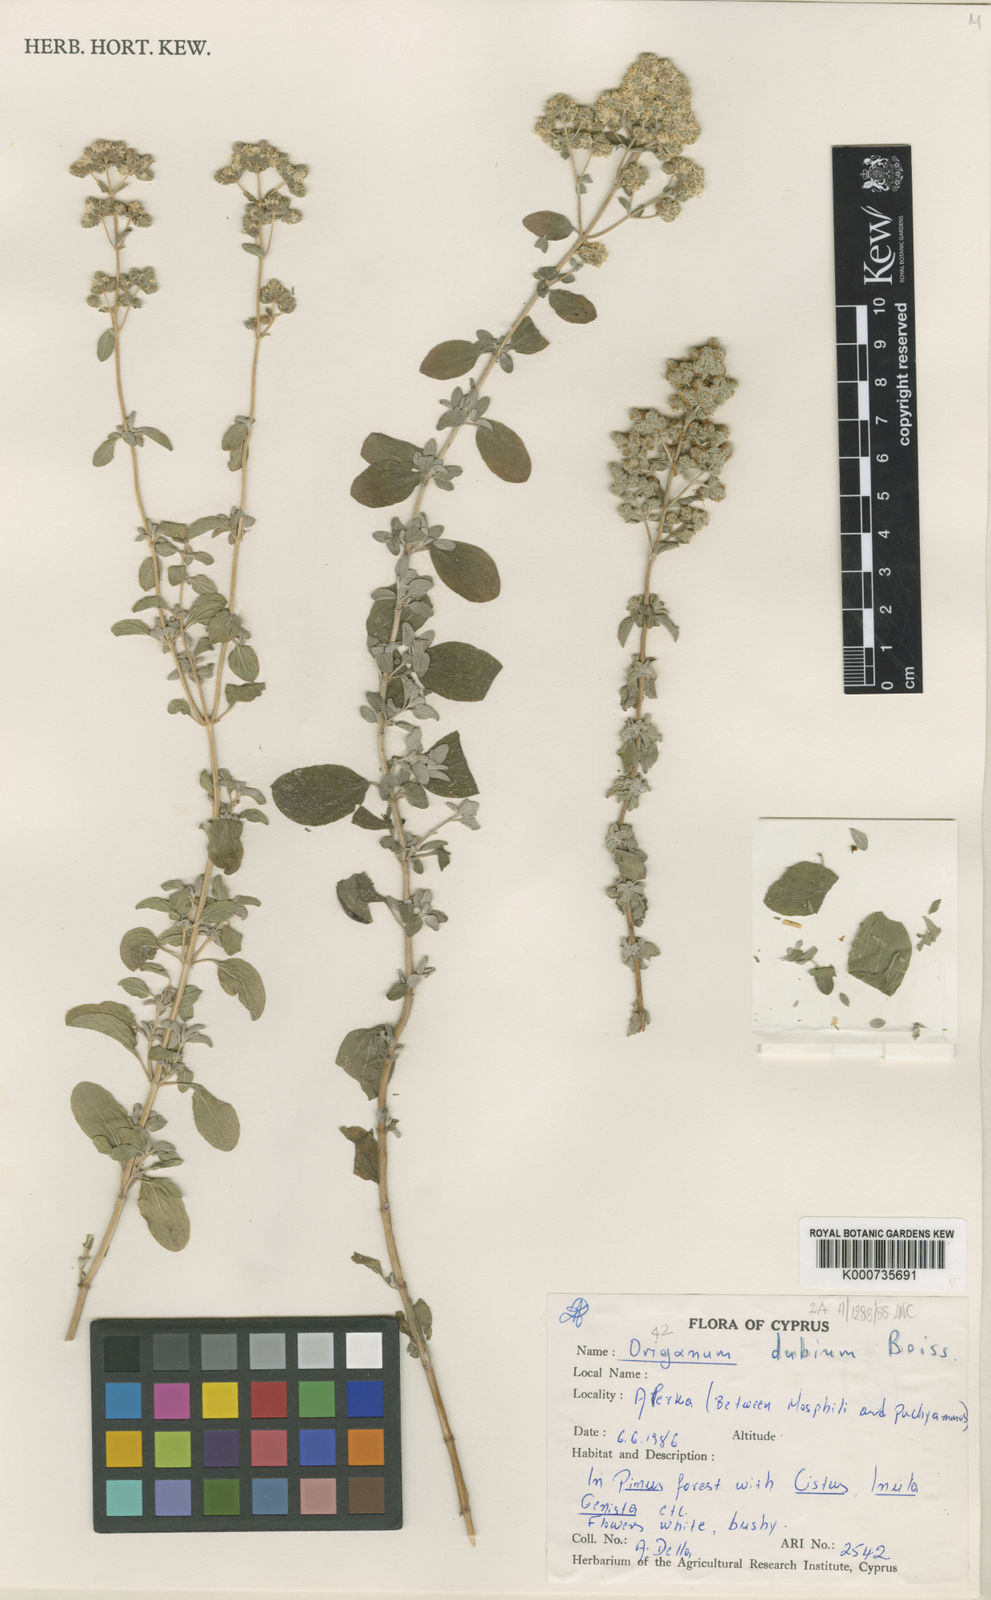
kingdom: Plantae
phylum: Tracheophyta
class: Magnoliopsida
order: Lamiales
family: Lamiaceae
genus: Origanum
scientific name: Origanum majorana
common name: Sweet marjoram
